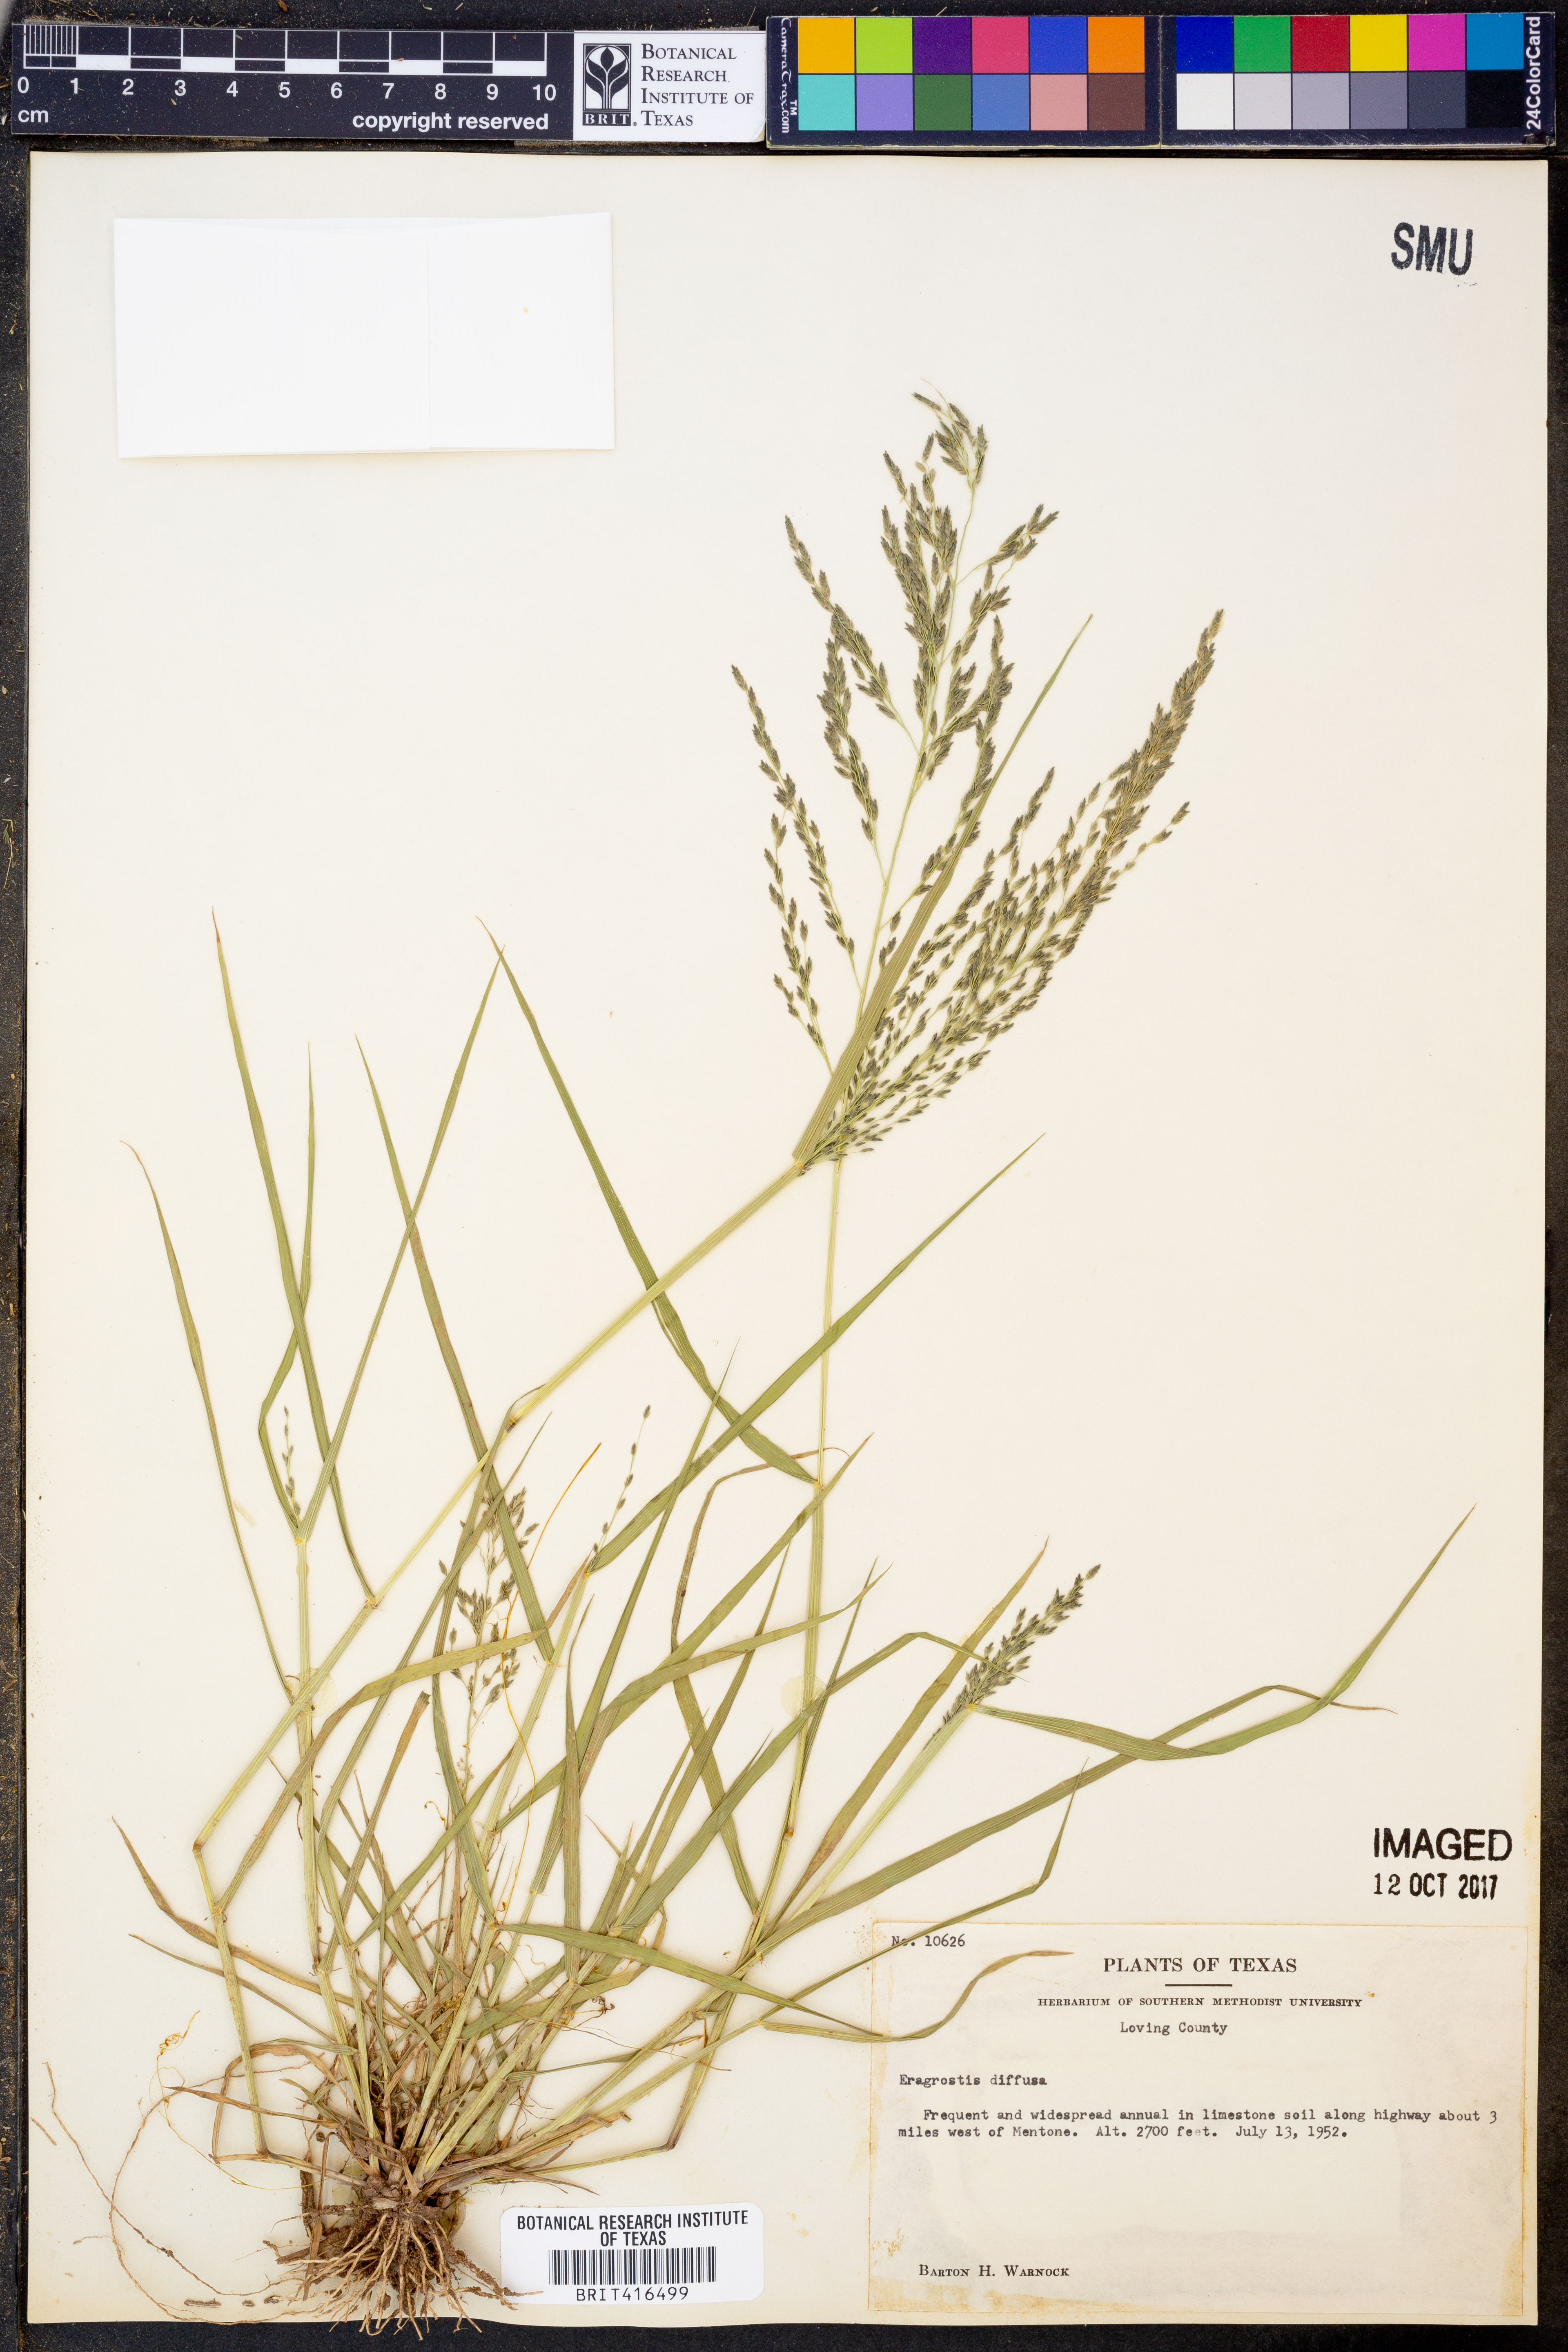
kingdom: Plantae
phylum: Tracheophyta
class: Liliopsida
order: Poales
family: Poaceae
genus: Eragrostis
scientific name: Eragrostis pectinacea
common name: Tufted lovegrass
